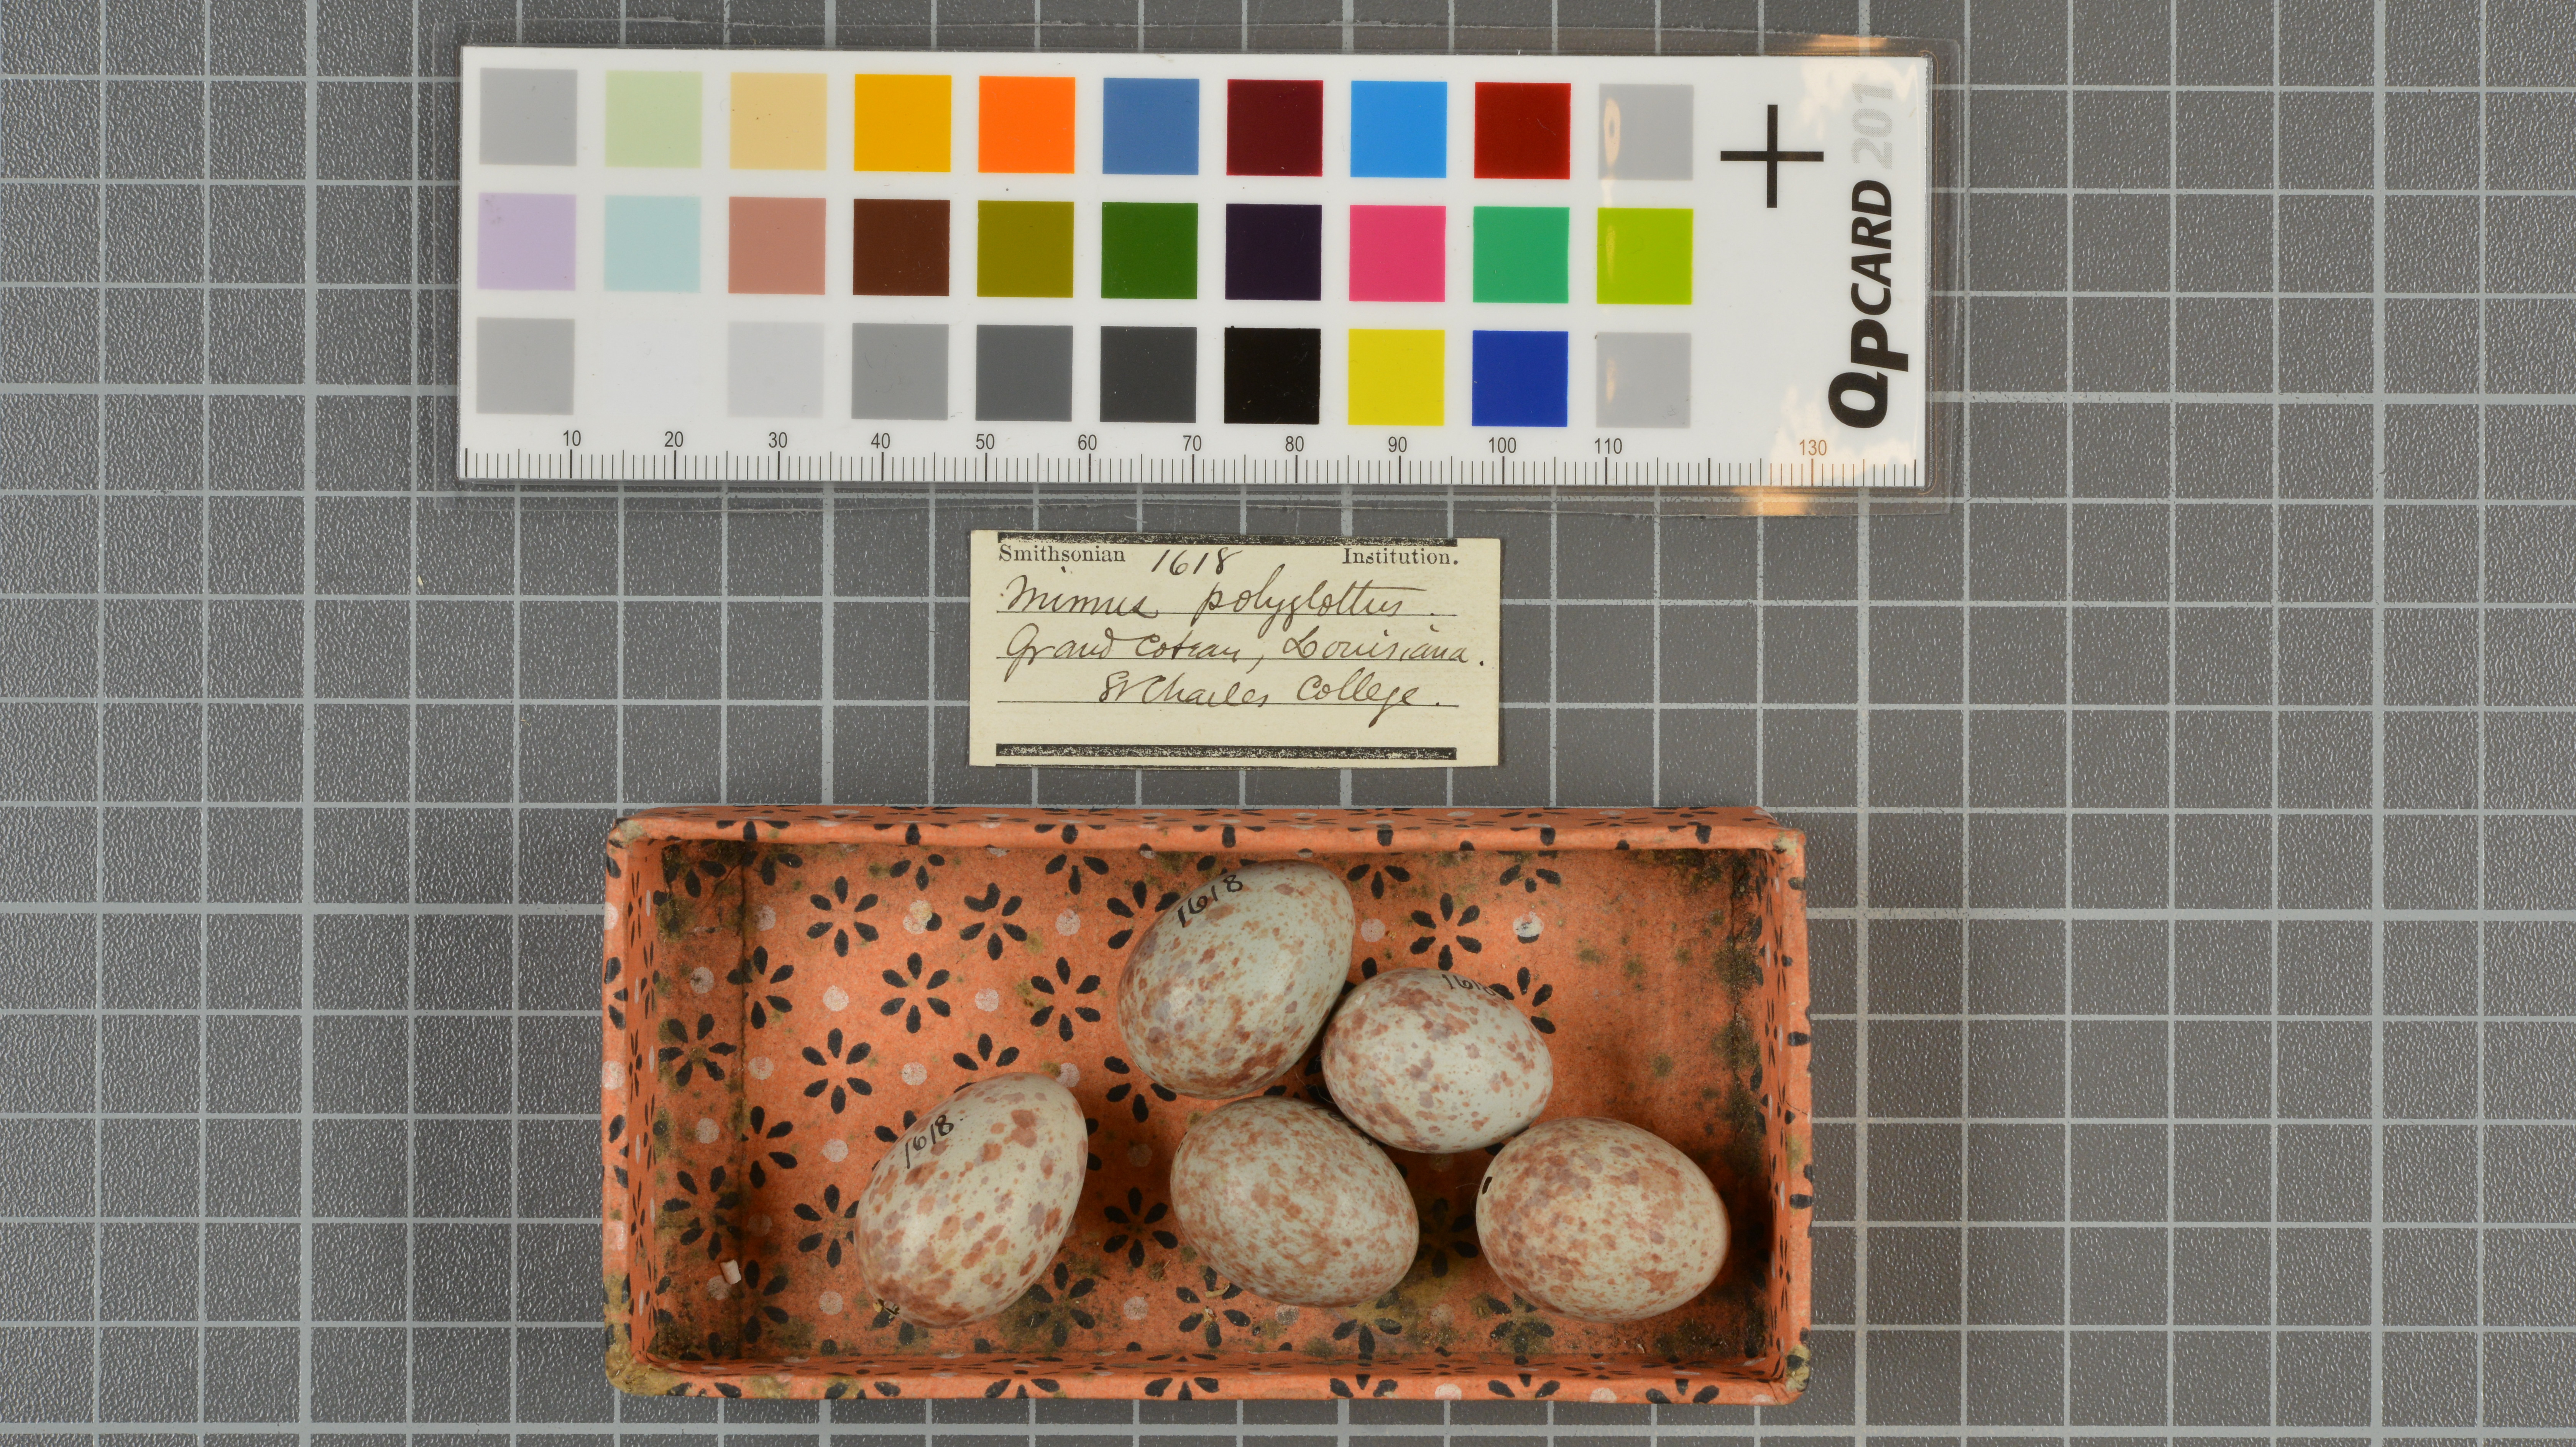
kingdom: Animalia
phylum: Chordata
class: Aves
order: Passeriformes
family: Mimidae
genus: Mimus
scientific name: Mimus polyglottos
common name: Northern mockingbird
